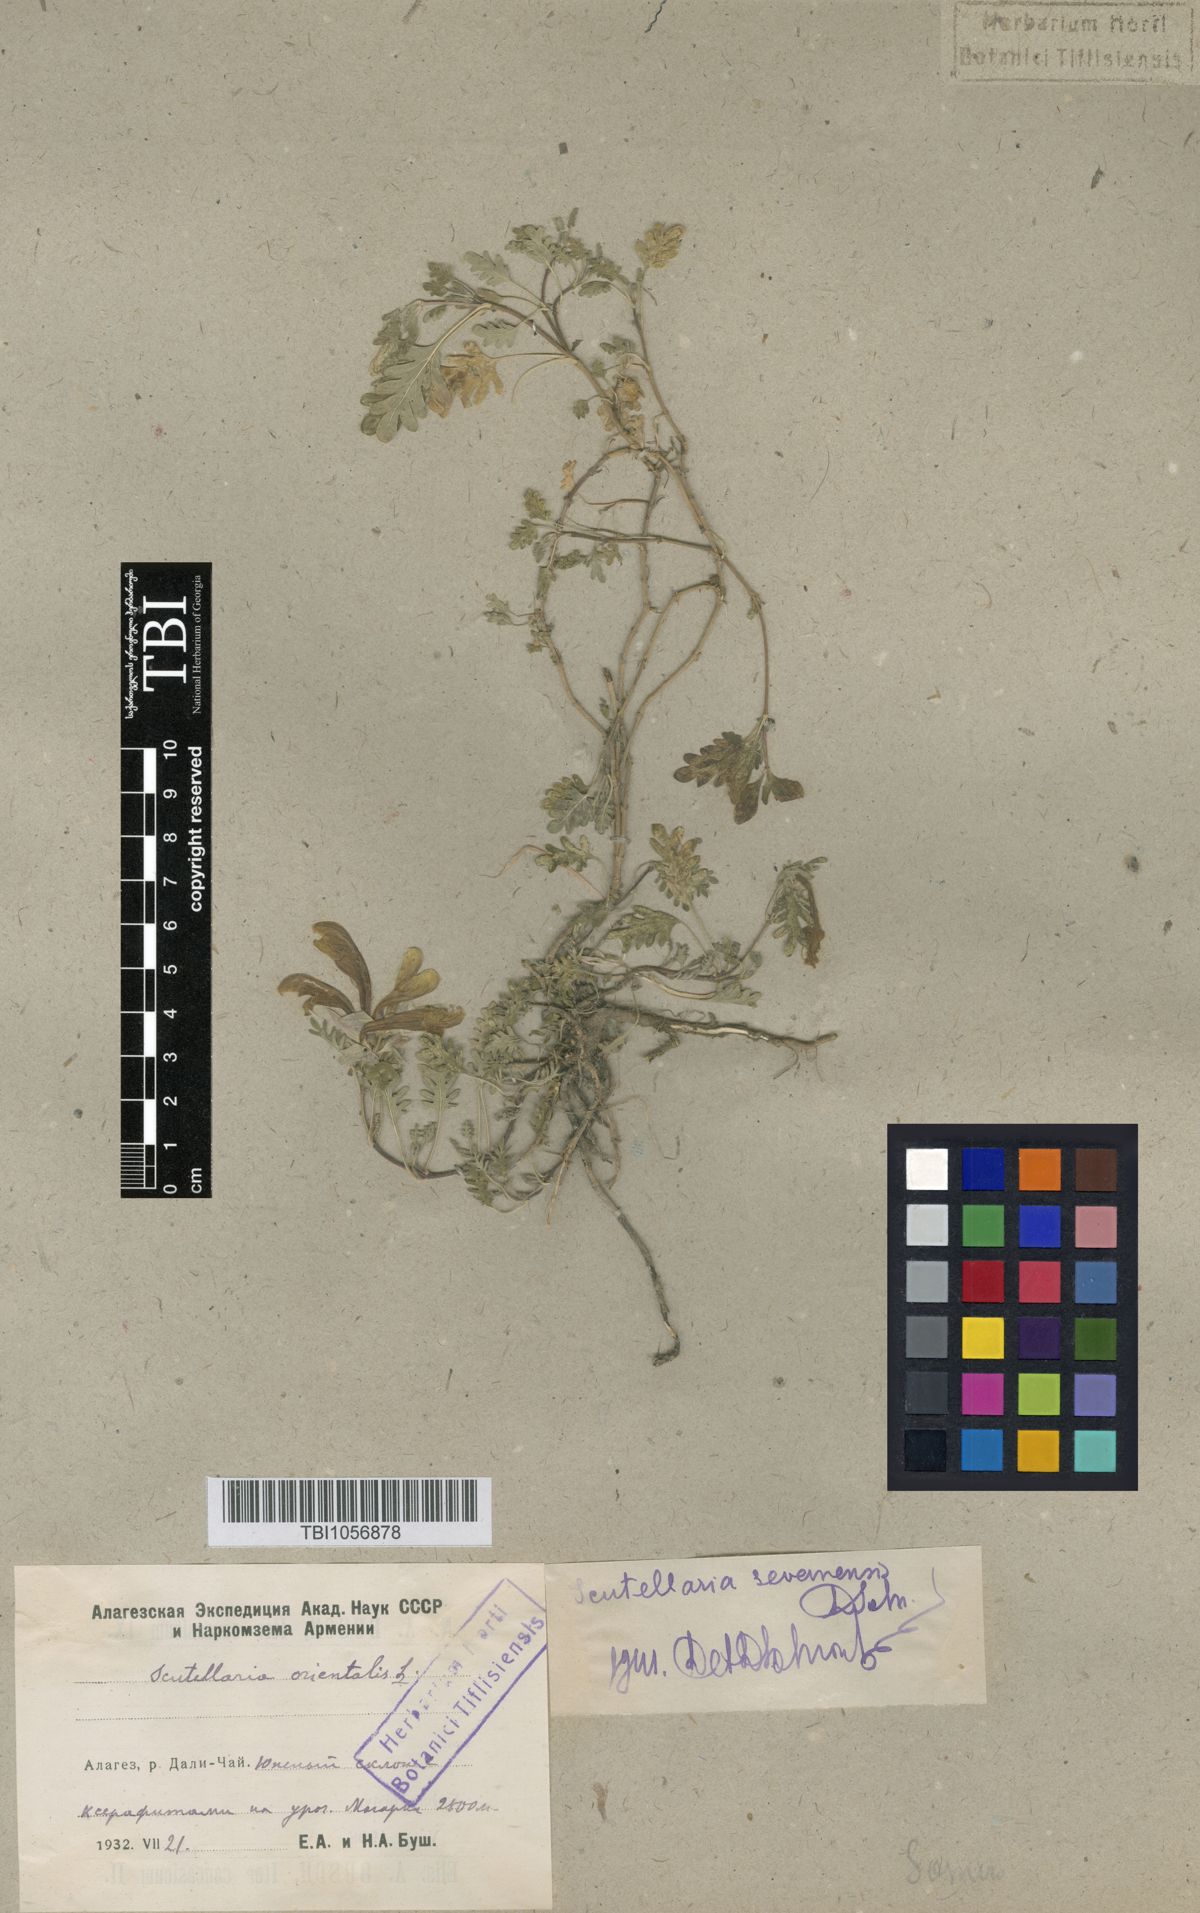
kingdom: Plantae
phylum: Tracheophyta
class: Magnoliopsida
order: Lamiales
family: Lamiaceae
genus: Scutellaria
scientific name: Scutellaria sevanensis
